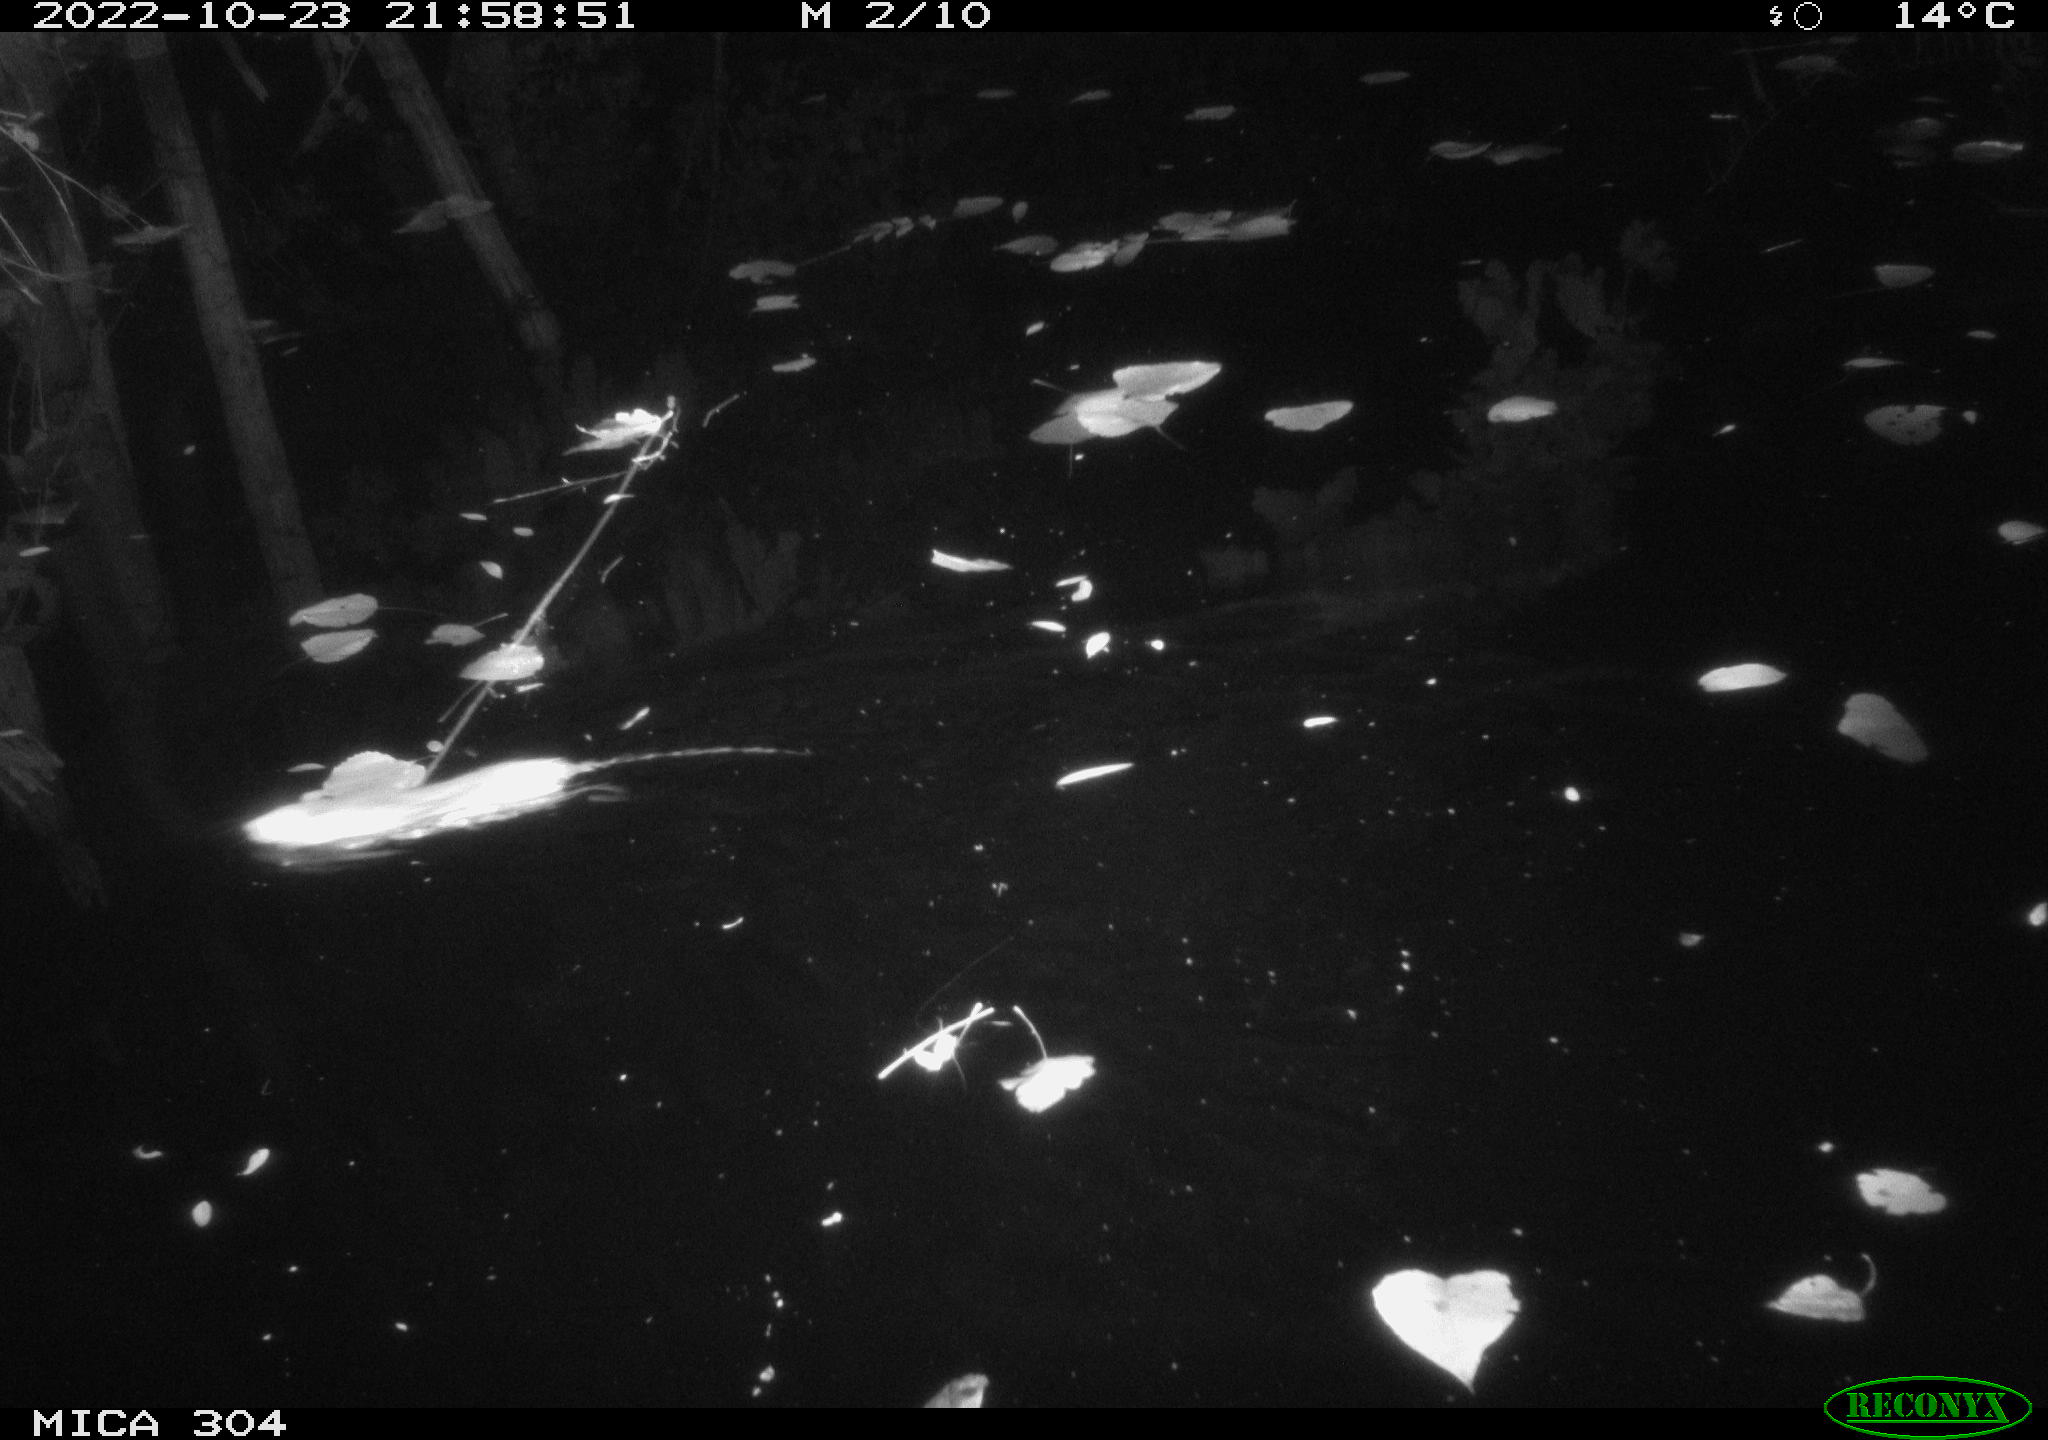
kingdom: Animalia
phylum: Chordata
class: Mammalia
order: Rodentia
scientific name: Rodentia
